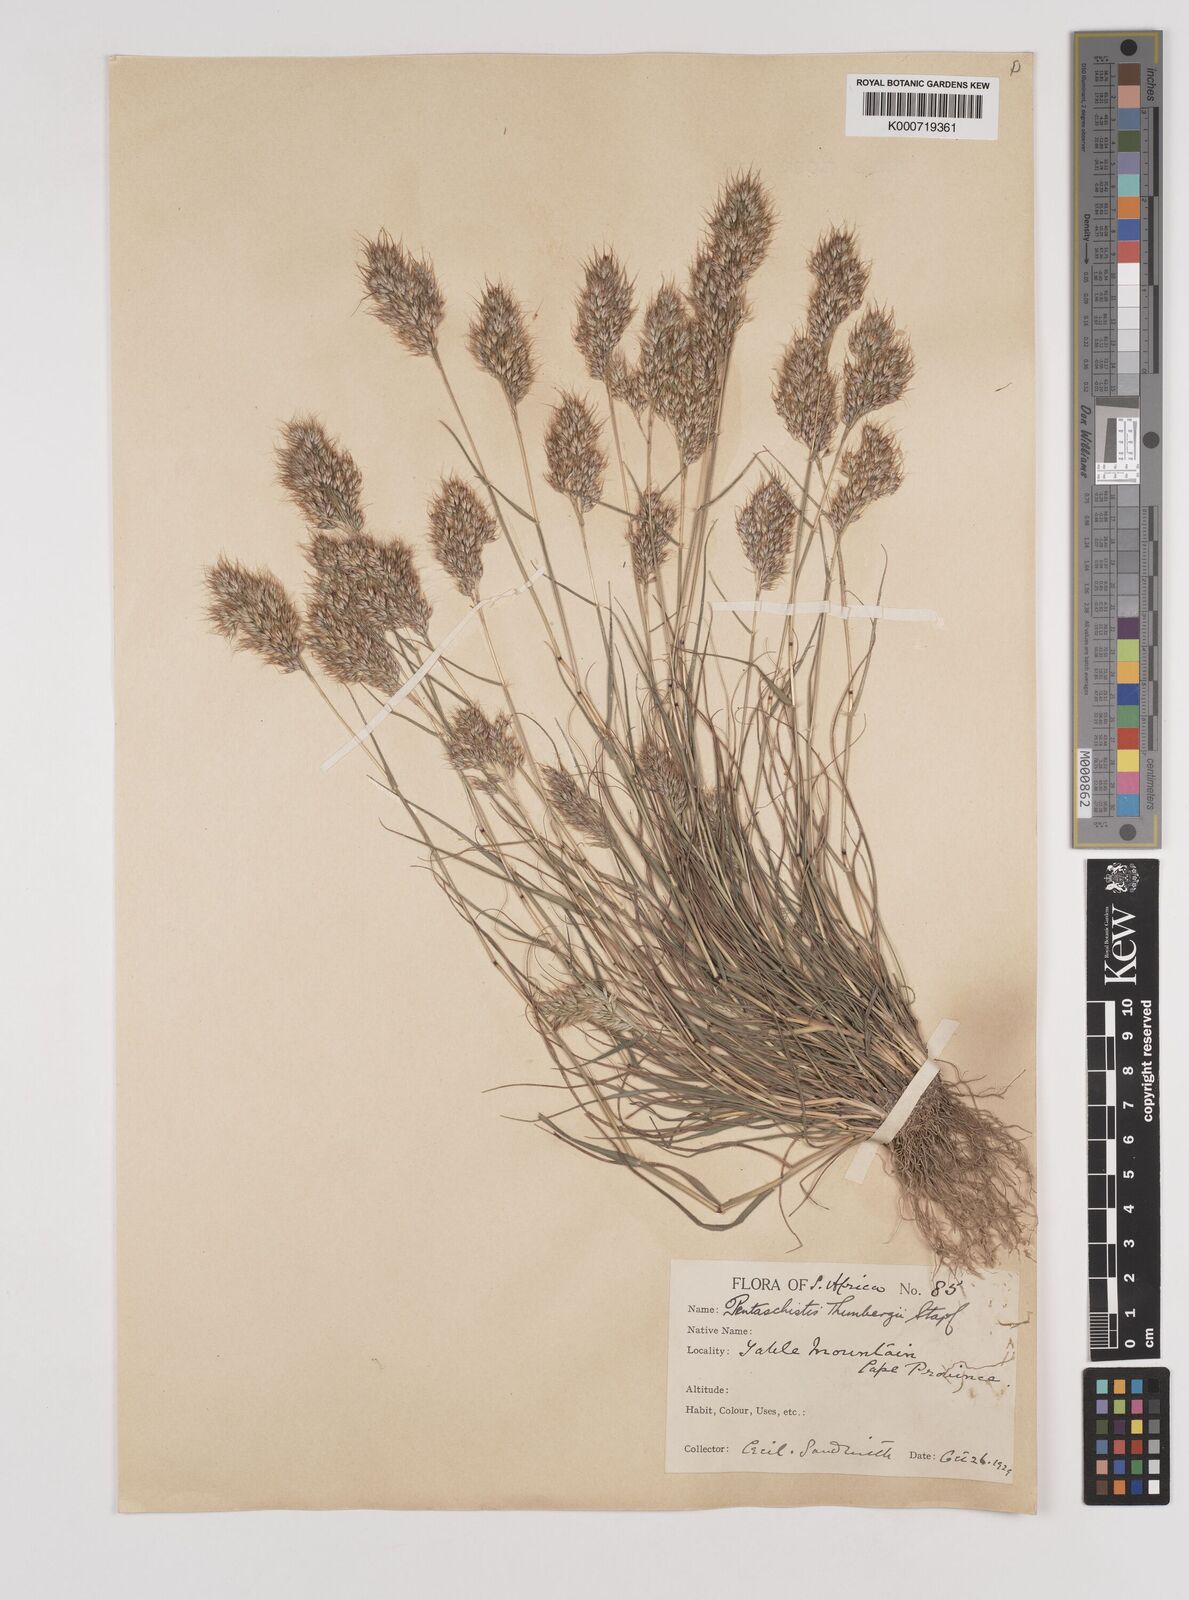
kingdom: Plantae
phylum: Tracheophyta
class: Liliopsida
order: Poales
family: Poaceae
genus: Pentameris
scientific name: Pentameris triseta
